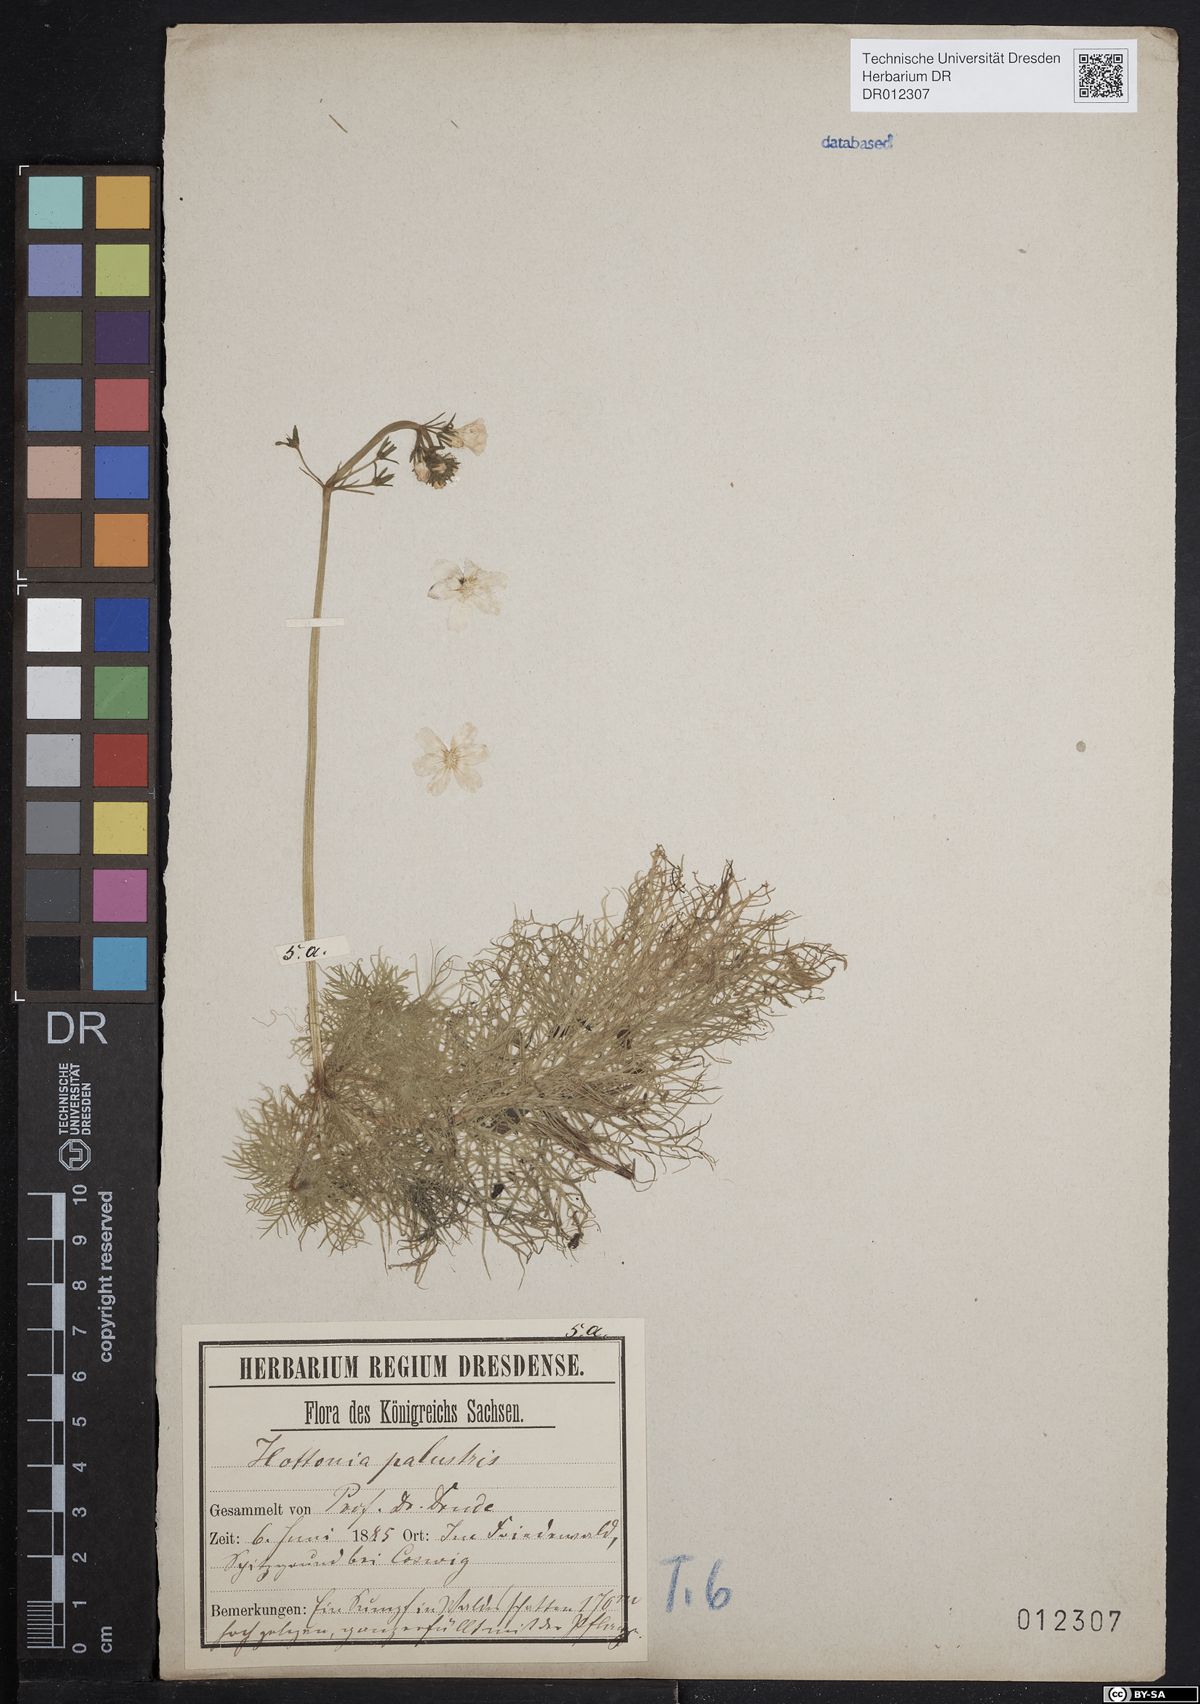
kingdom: Plantae
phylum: Tracheophyta
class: Magnoliopsida
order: Ericales
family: Primulaceae
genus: Hottonia
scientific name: Hottonia palustris
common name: Water-violet
